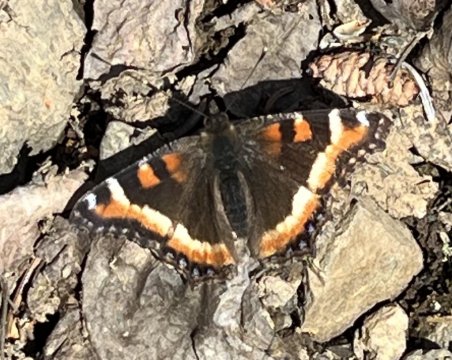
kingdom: Animalia
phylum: Arthropoda
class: Insecta
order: Lepidoptera
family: Nymphalidae
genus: Aglais
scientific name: Aglais milberti
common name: Milbert's Tortoiseshell
